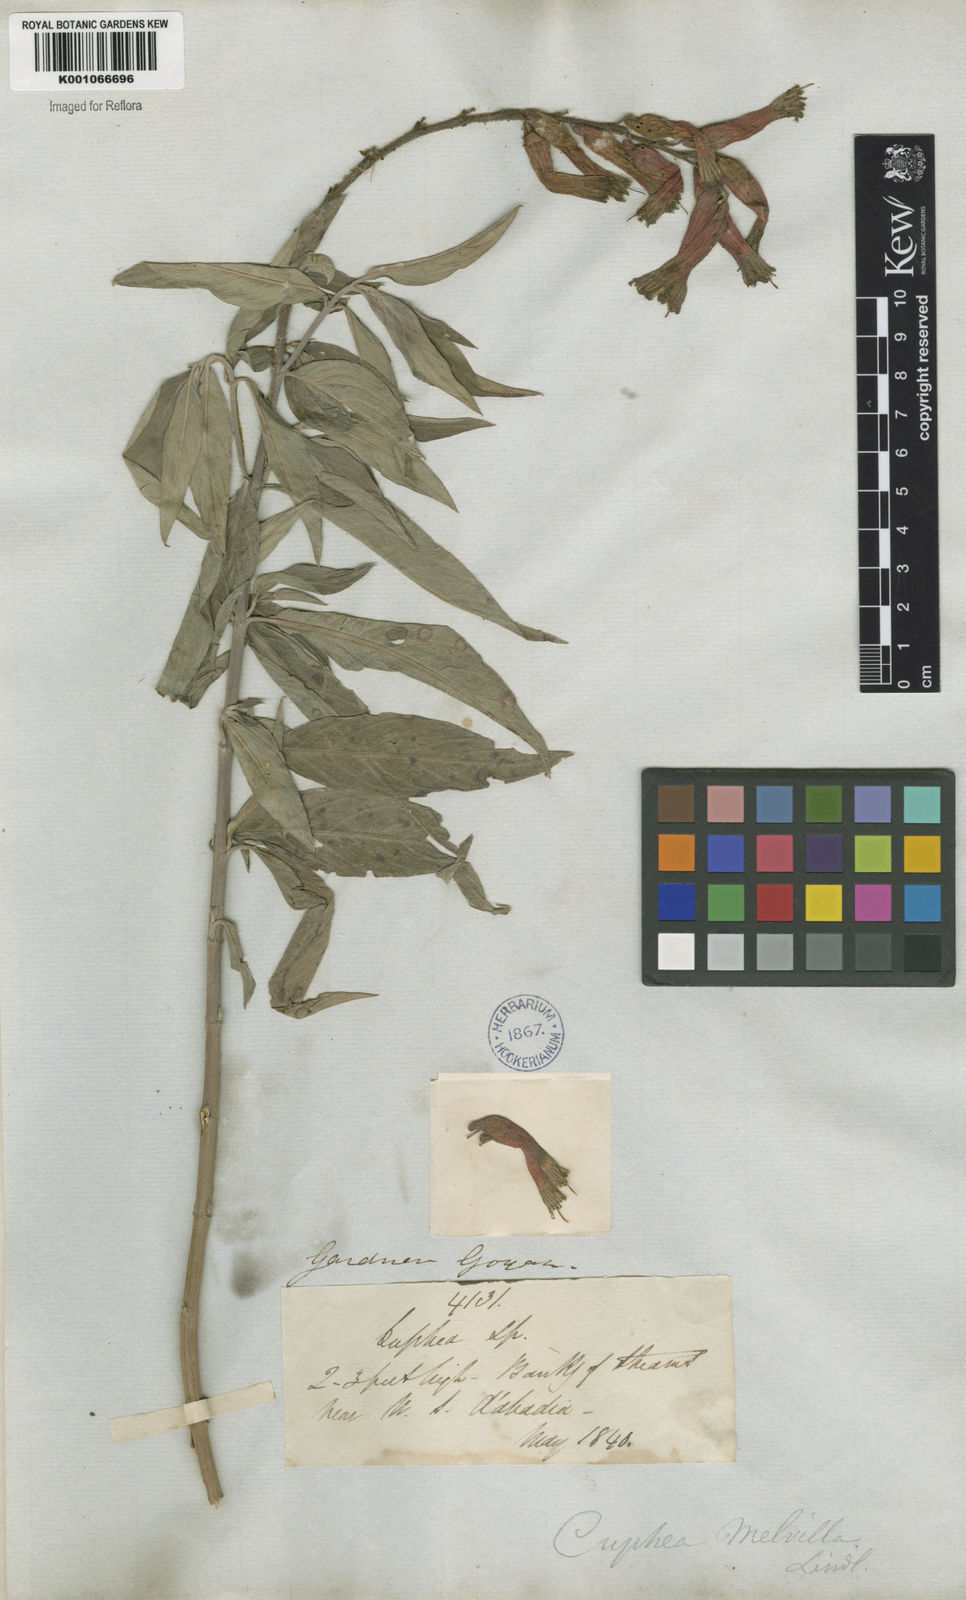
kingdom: Plantae
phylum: Tracheophyta
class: Magnoliopsida
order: Myrtales
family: Lythraceae
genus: Cuphea
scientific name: Cuphea melvilla
